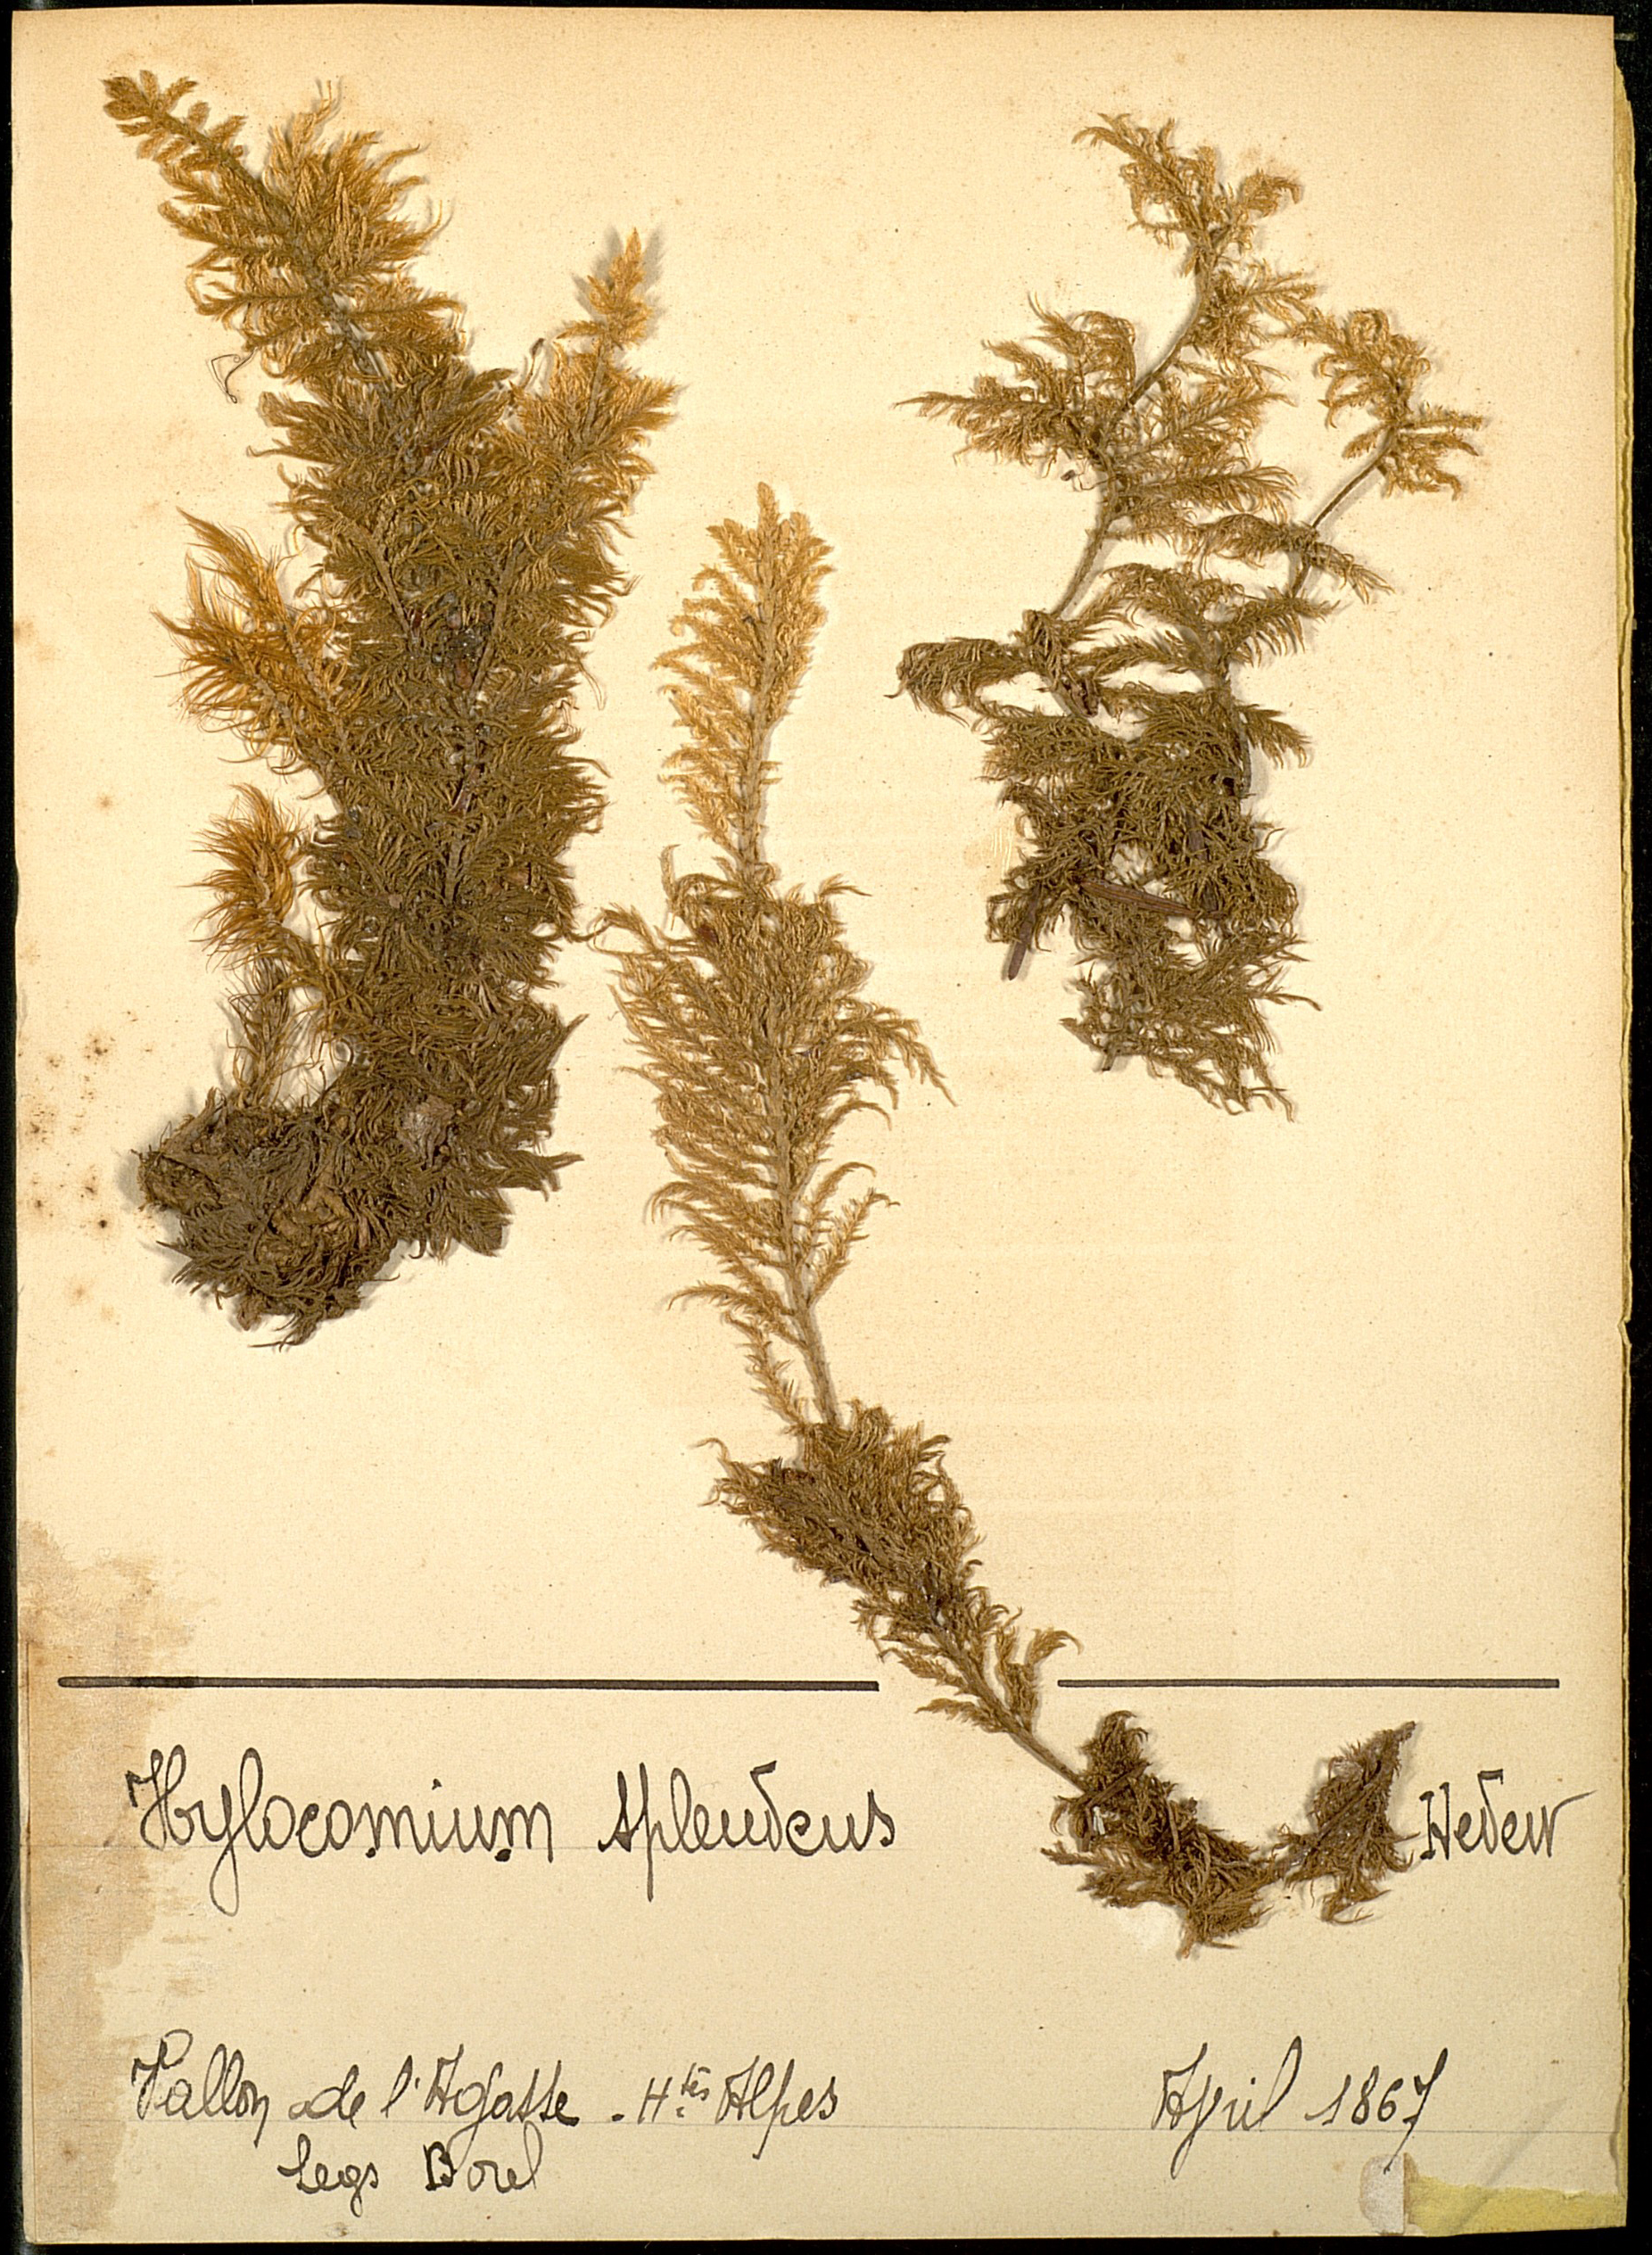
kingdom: Plantae
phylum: Bryophyta
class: Bryopsida
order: Hypnales
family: Hylocomiaceae
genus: Hylocomium
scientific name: Hylocomium splendens
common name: Stairstep moss
